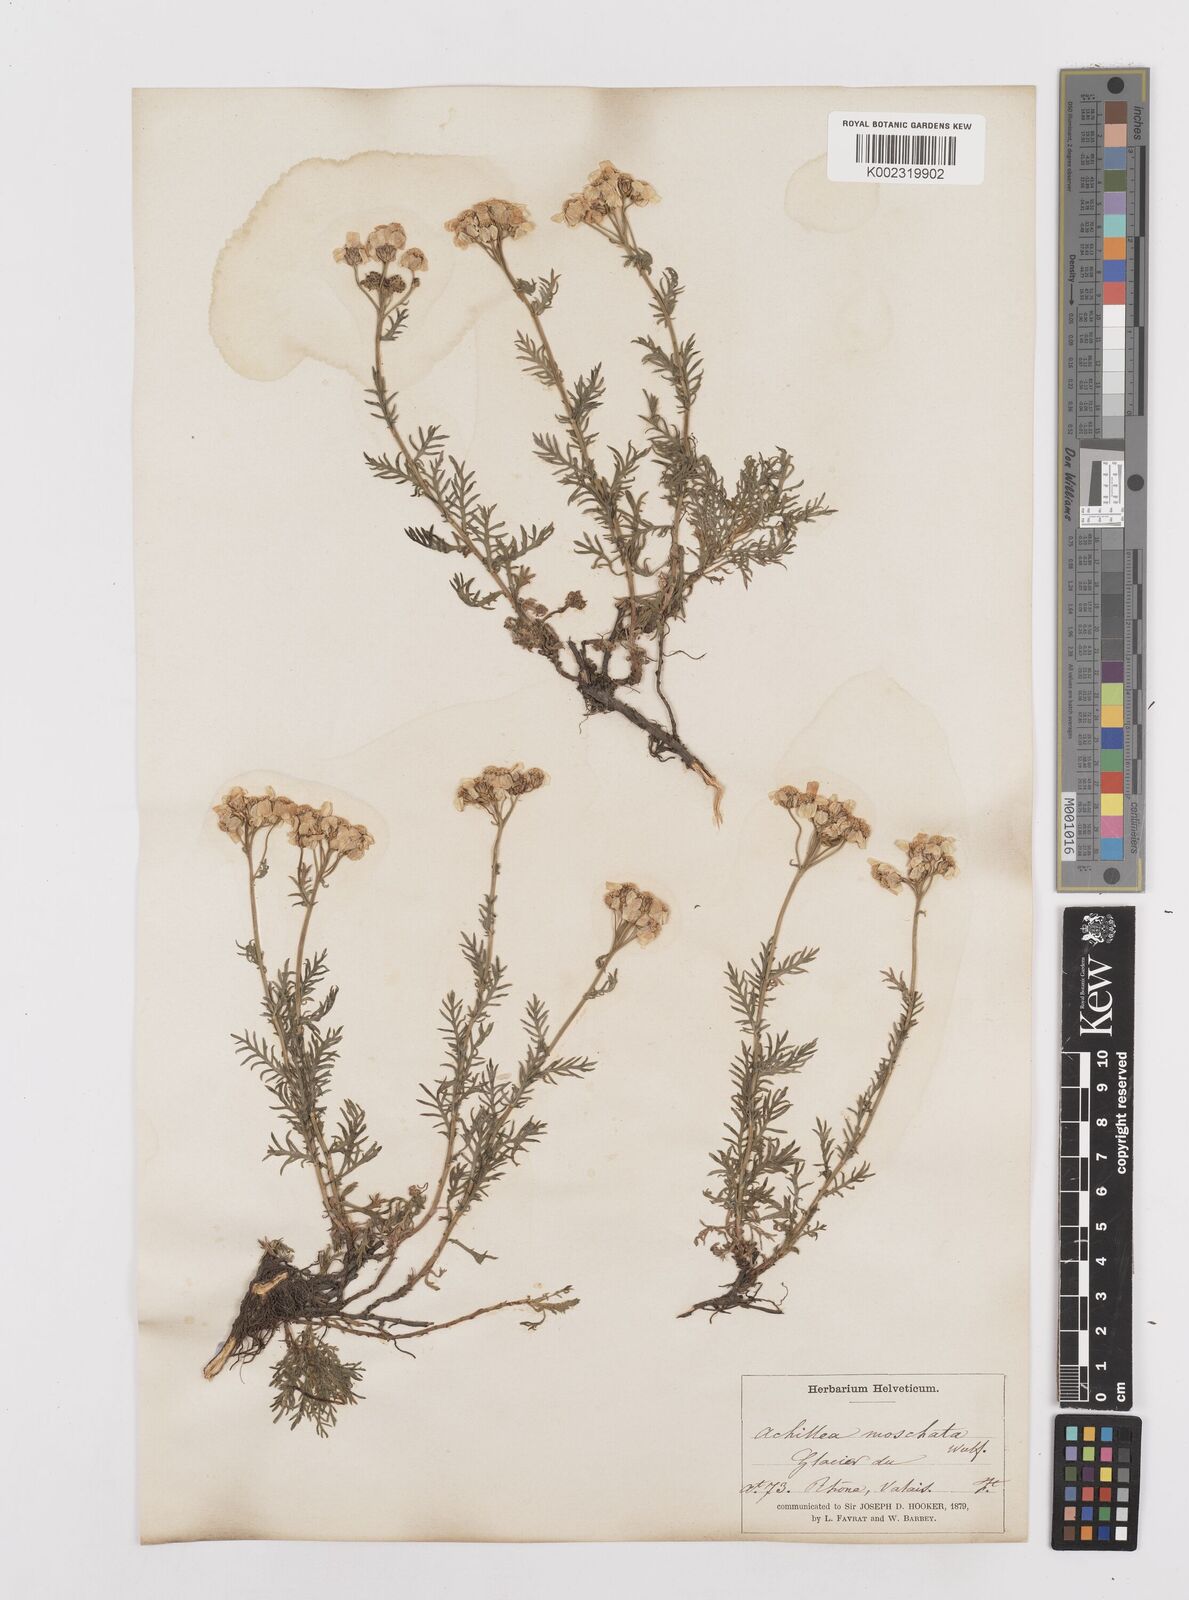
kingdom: Plantae
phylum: Tracheophyta
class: Magnoliopsida
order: Asterales
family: Asteraceae
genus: Achillea
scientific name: Achillea erba-rotta
